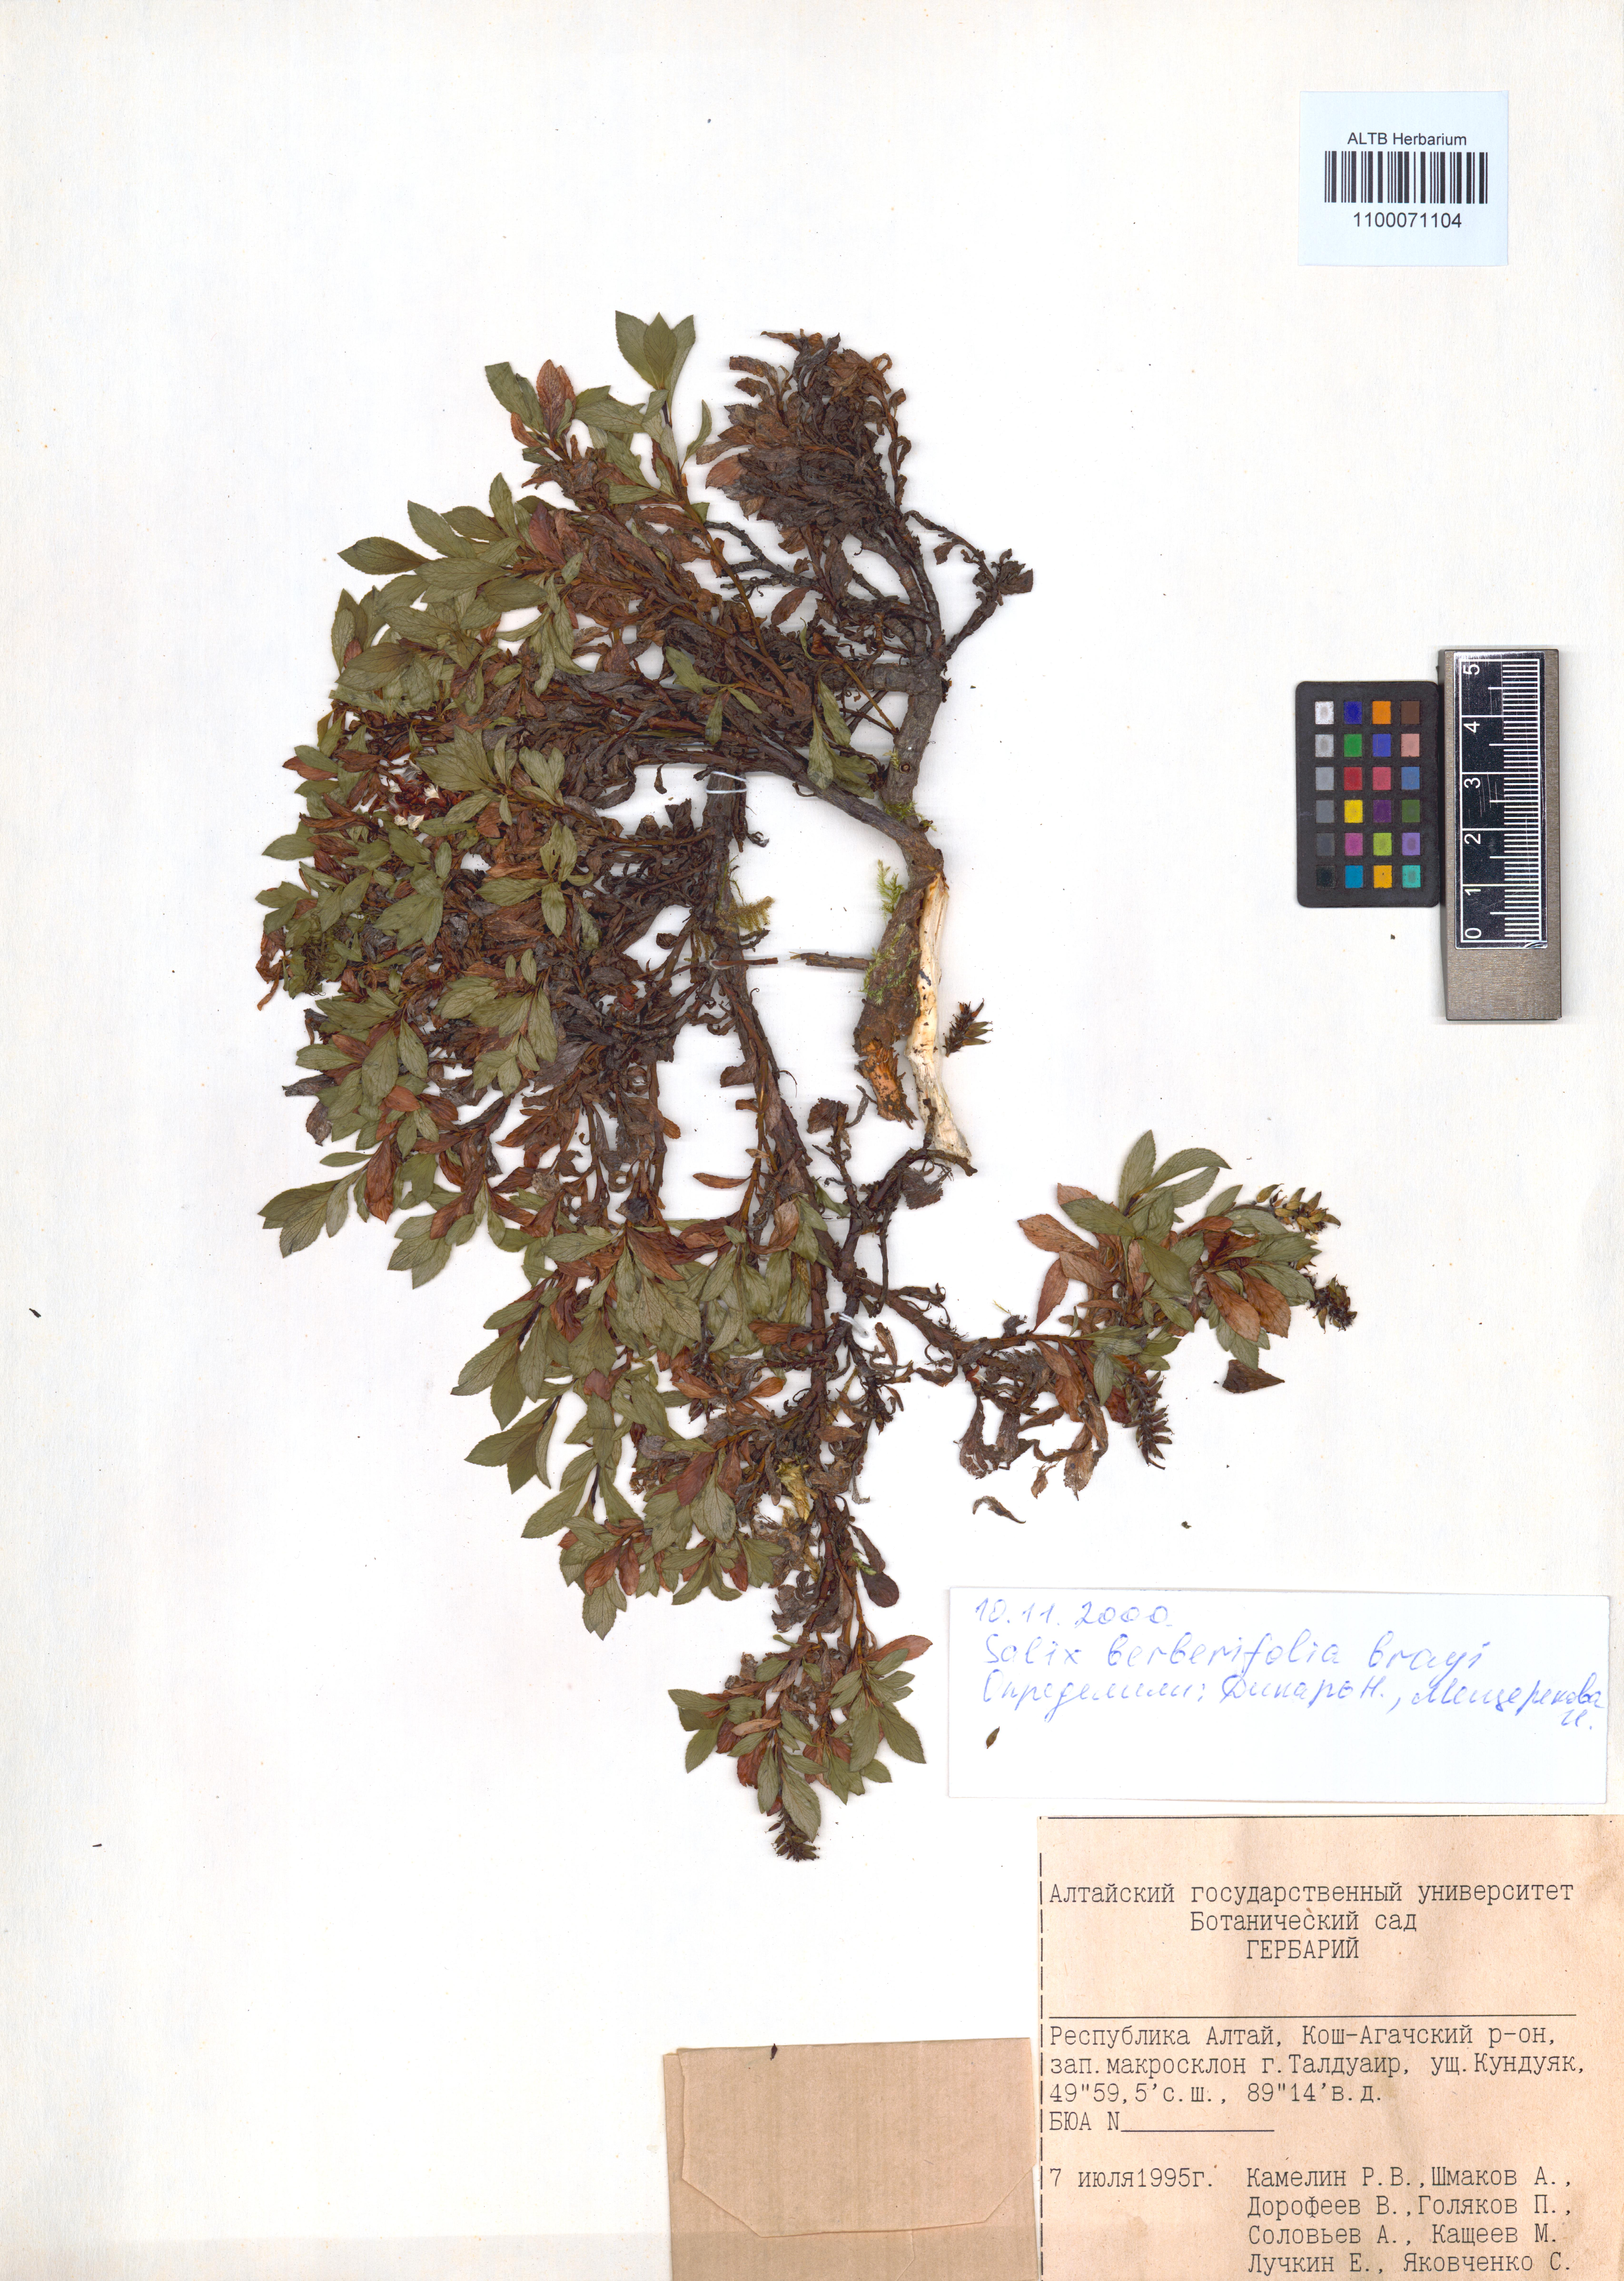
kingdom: Plantae
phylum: Tracheophyta
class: Magnoliopsida
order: Malpighiales
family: Salicaceae
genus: Salix
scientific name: Salix berberifolia
